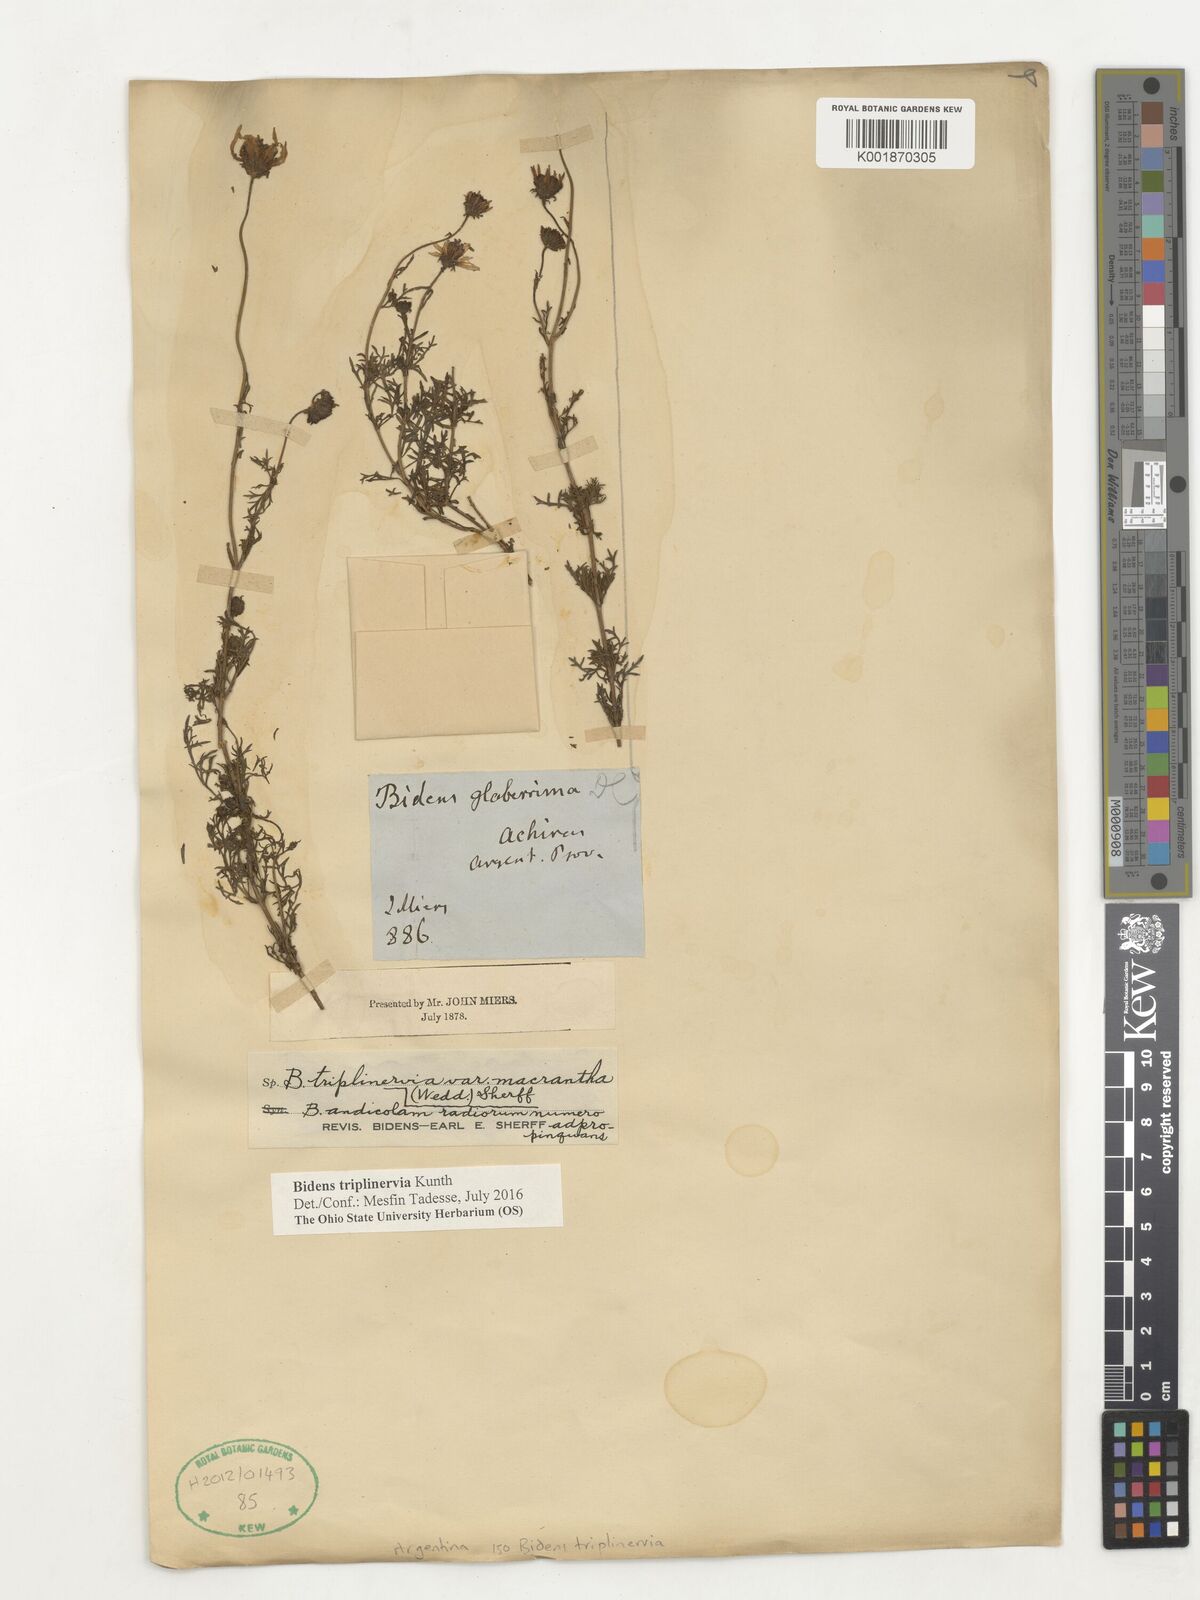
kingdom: Plantae
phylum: Tracheophyta
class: Magnoliopsida
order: Asterales
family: Asteraceae
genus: Bidens
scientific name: Bidens triplinervia
